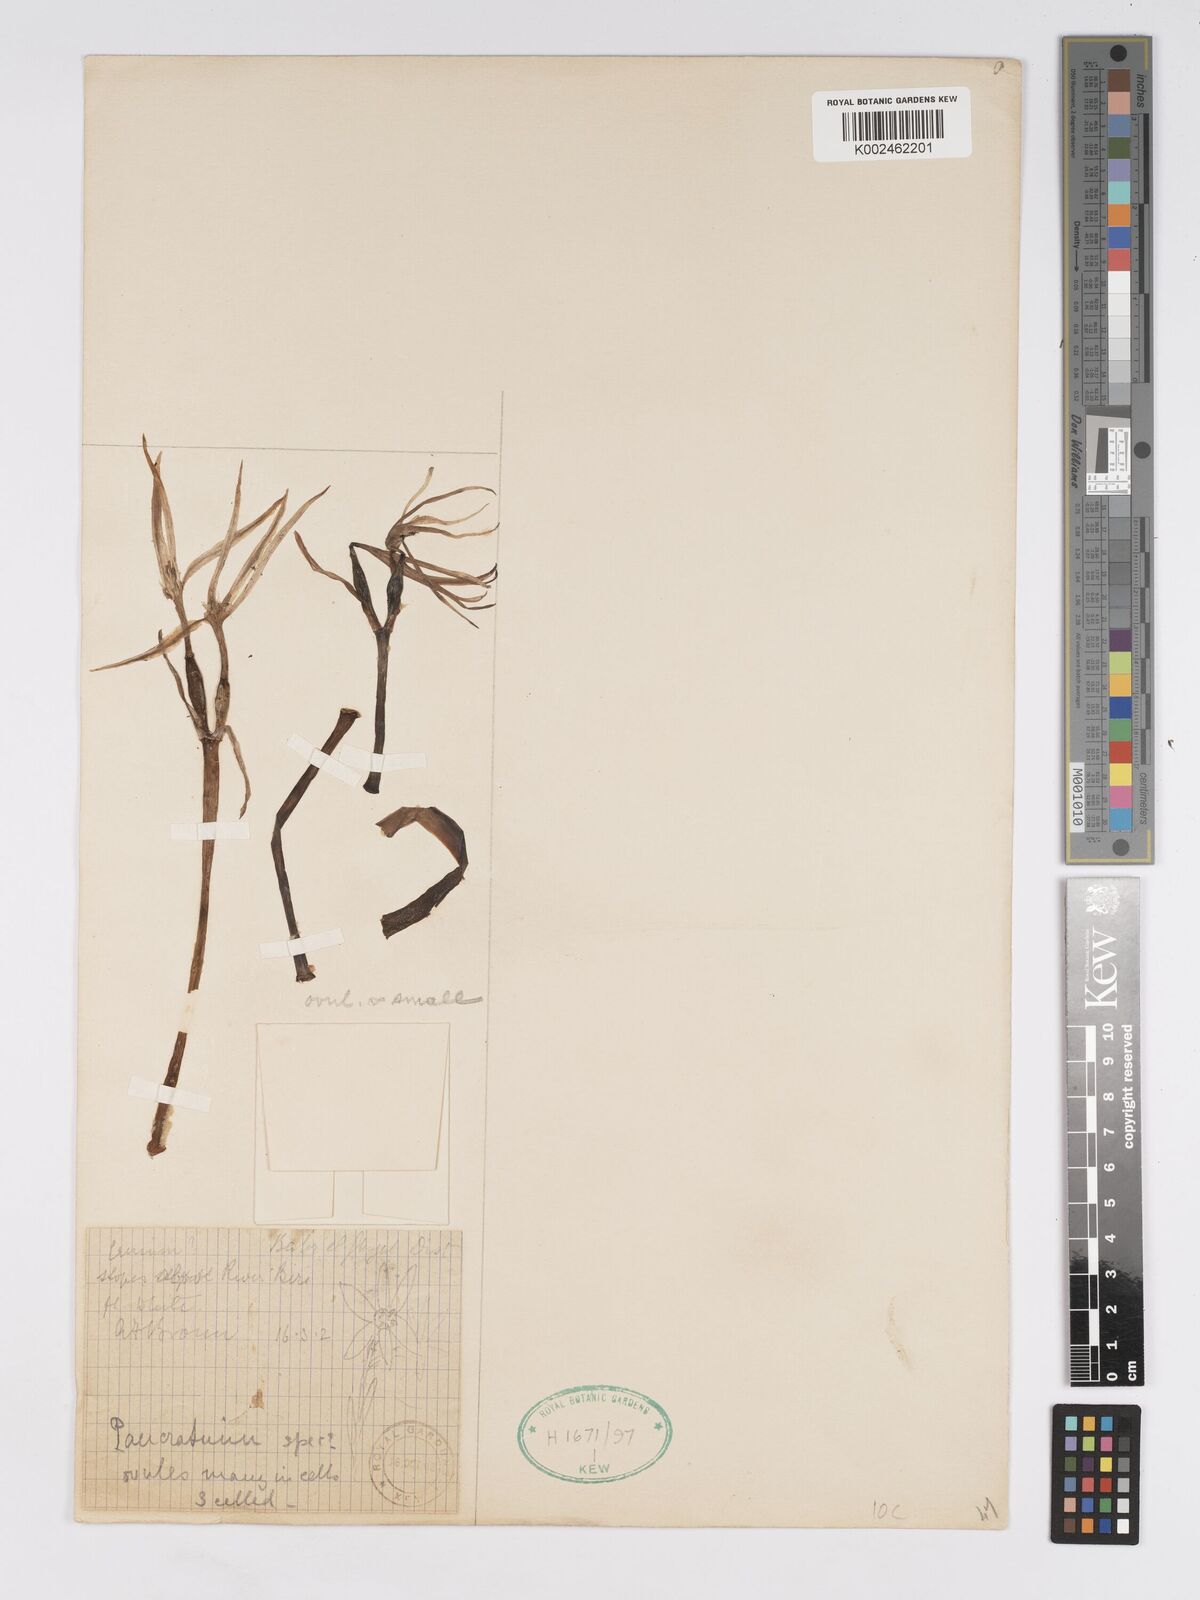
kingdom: Plantae
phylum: Tracheophyta
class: Liliopsida
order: Asparagales
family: Amaryllidaceae
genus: Pancratium
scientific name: Pancratium
